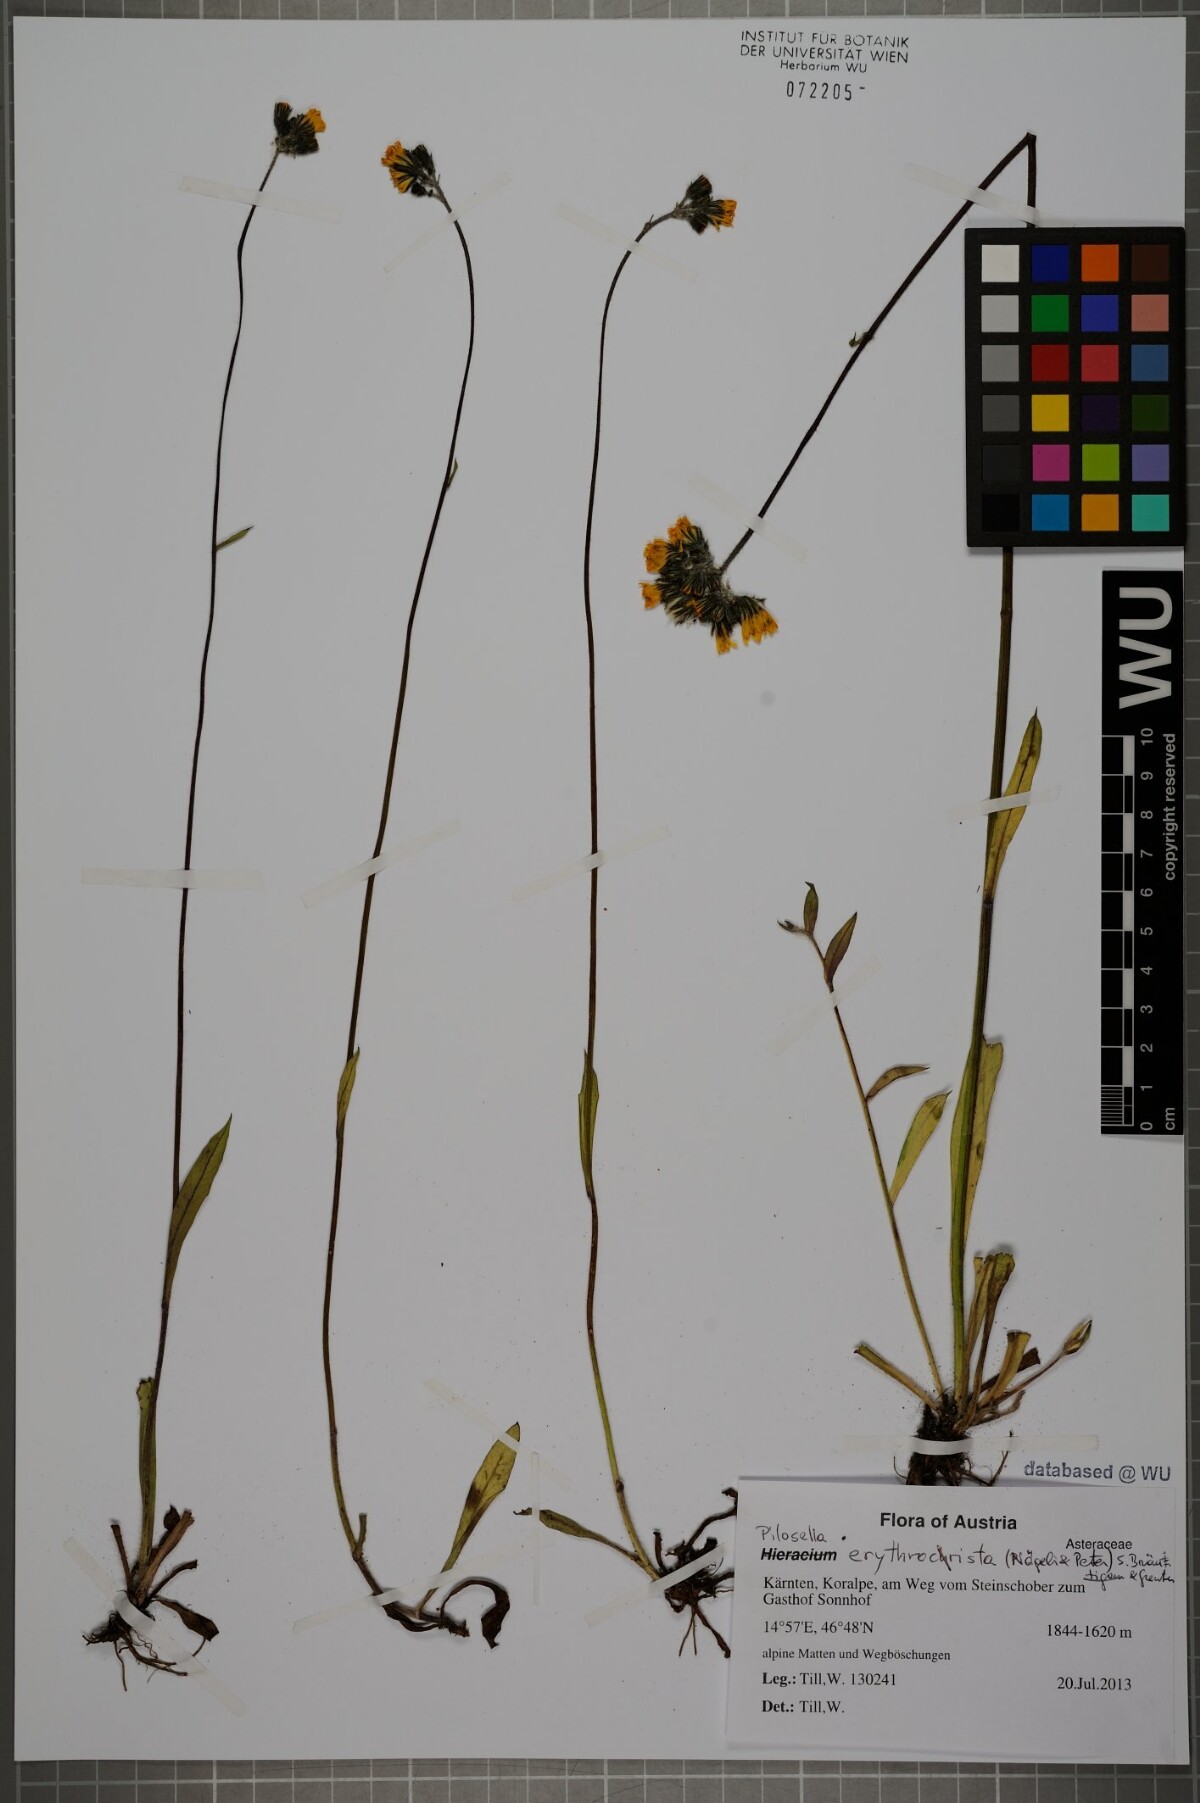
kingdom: Plantae
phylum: Tracheophyta
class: Magnoliopsida
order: Asterales
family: Asteraceae
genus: Pilosella
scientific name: Pilosella erythrochrista
